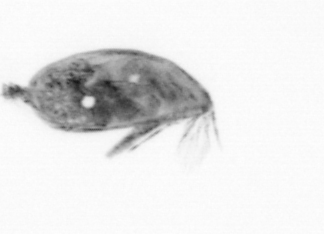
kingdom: Animalia
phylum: Arthropoda
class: Maxillopoda
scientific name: Maxillopoda
